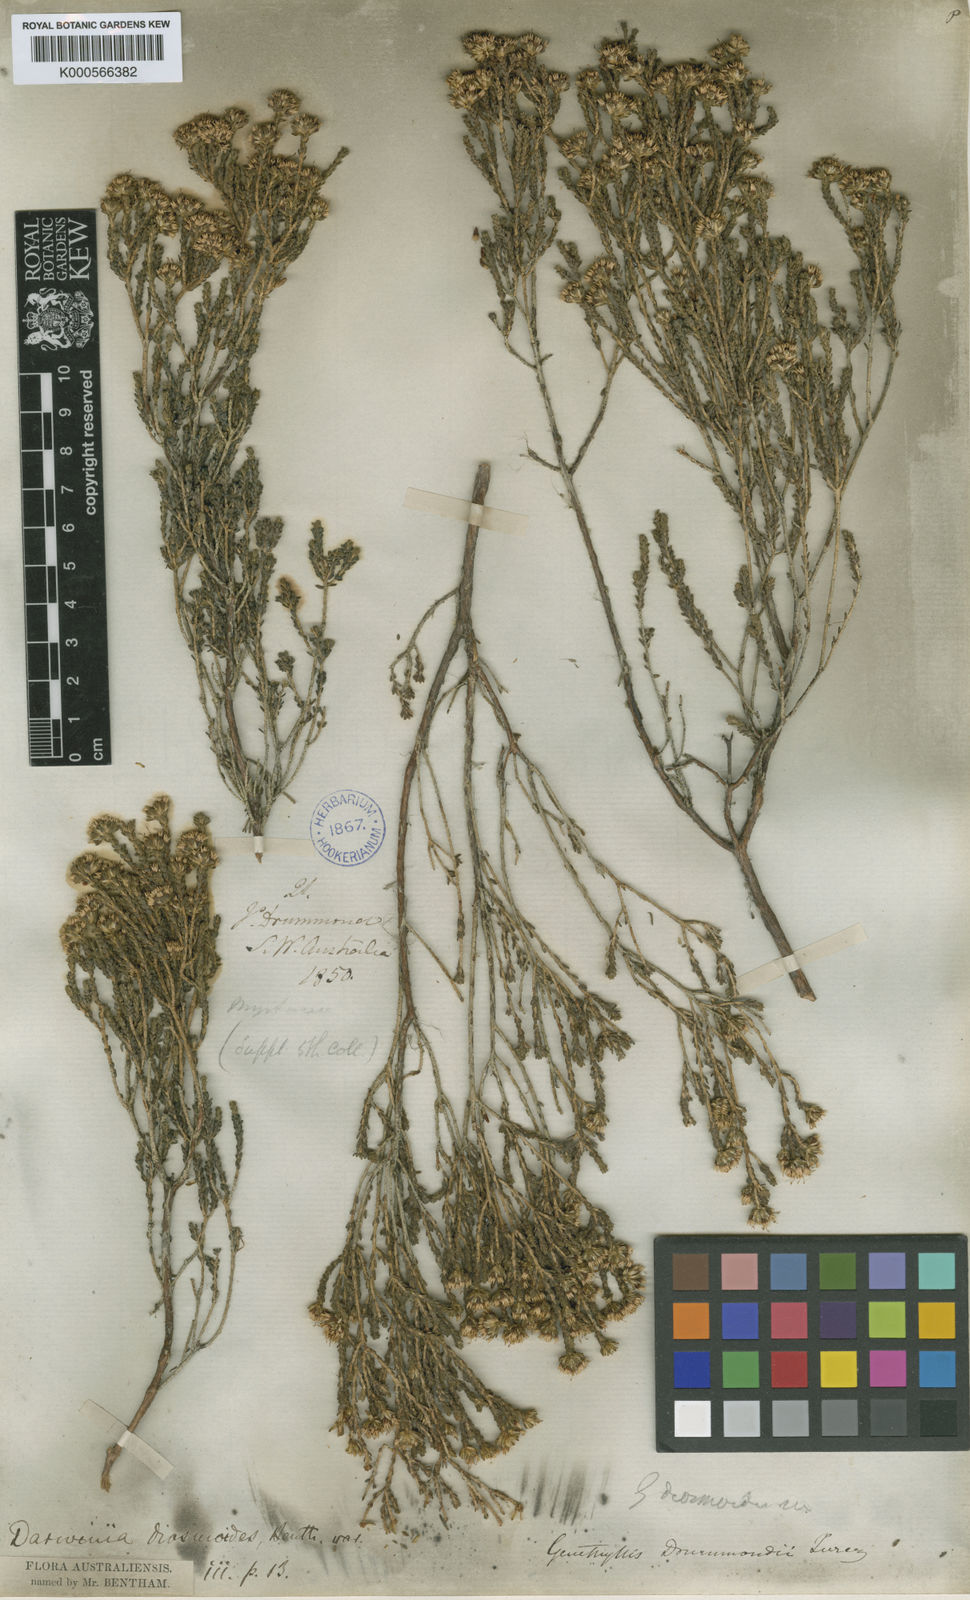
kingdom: Plantae
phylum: Tracheophyta
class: Magnoliopsida
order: Myrtales
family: Myrtaceae
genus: Darwinia
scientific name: Darwinia diosmoides
